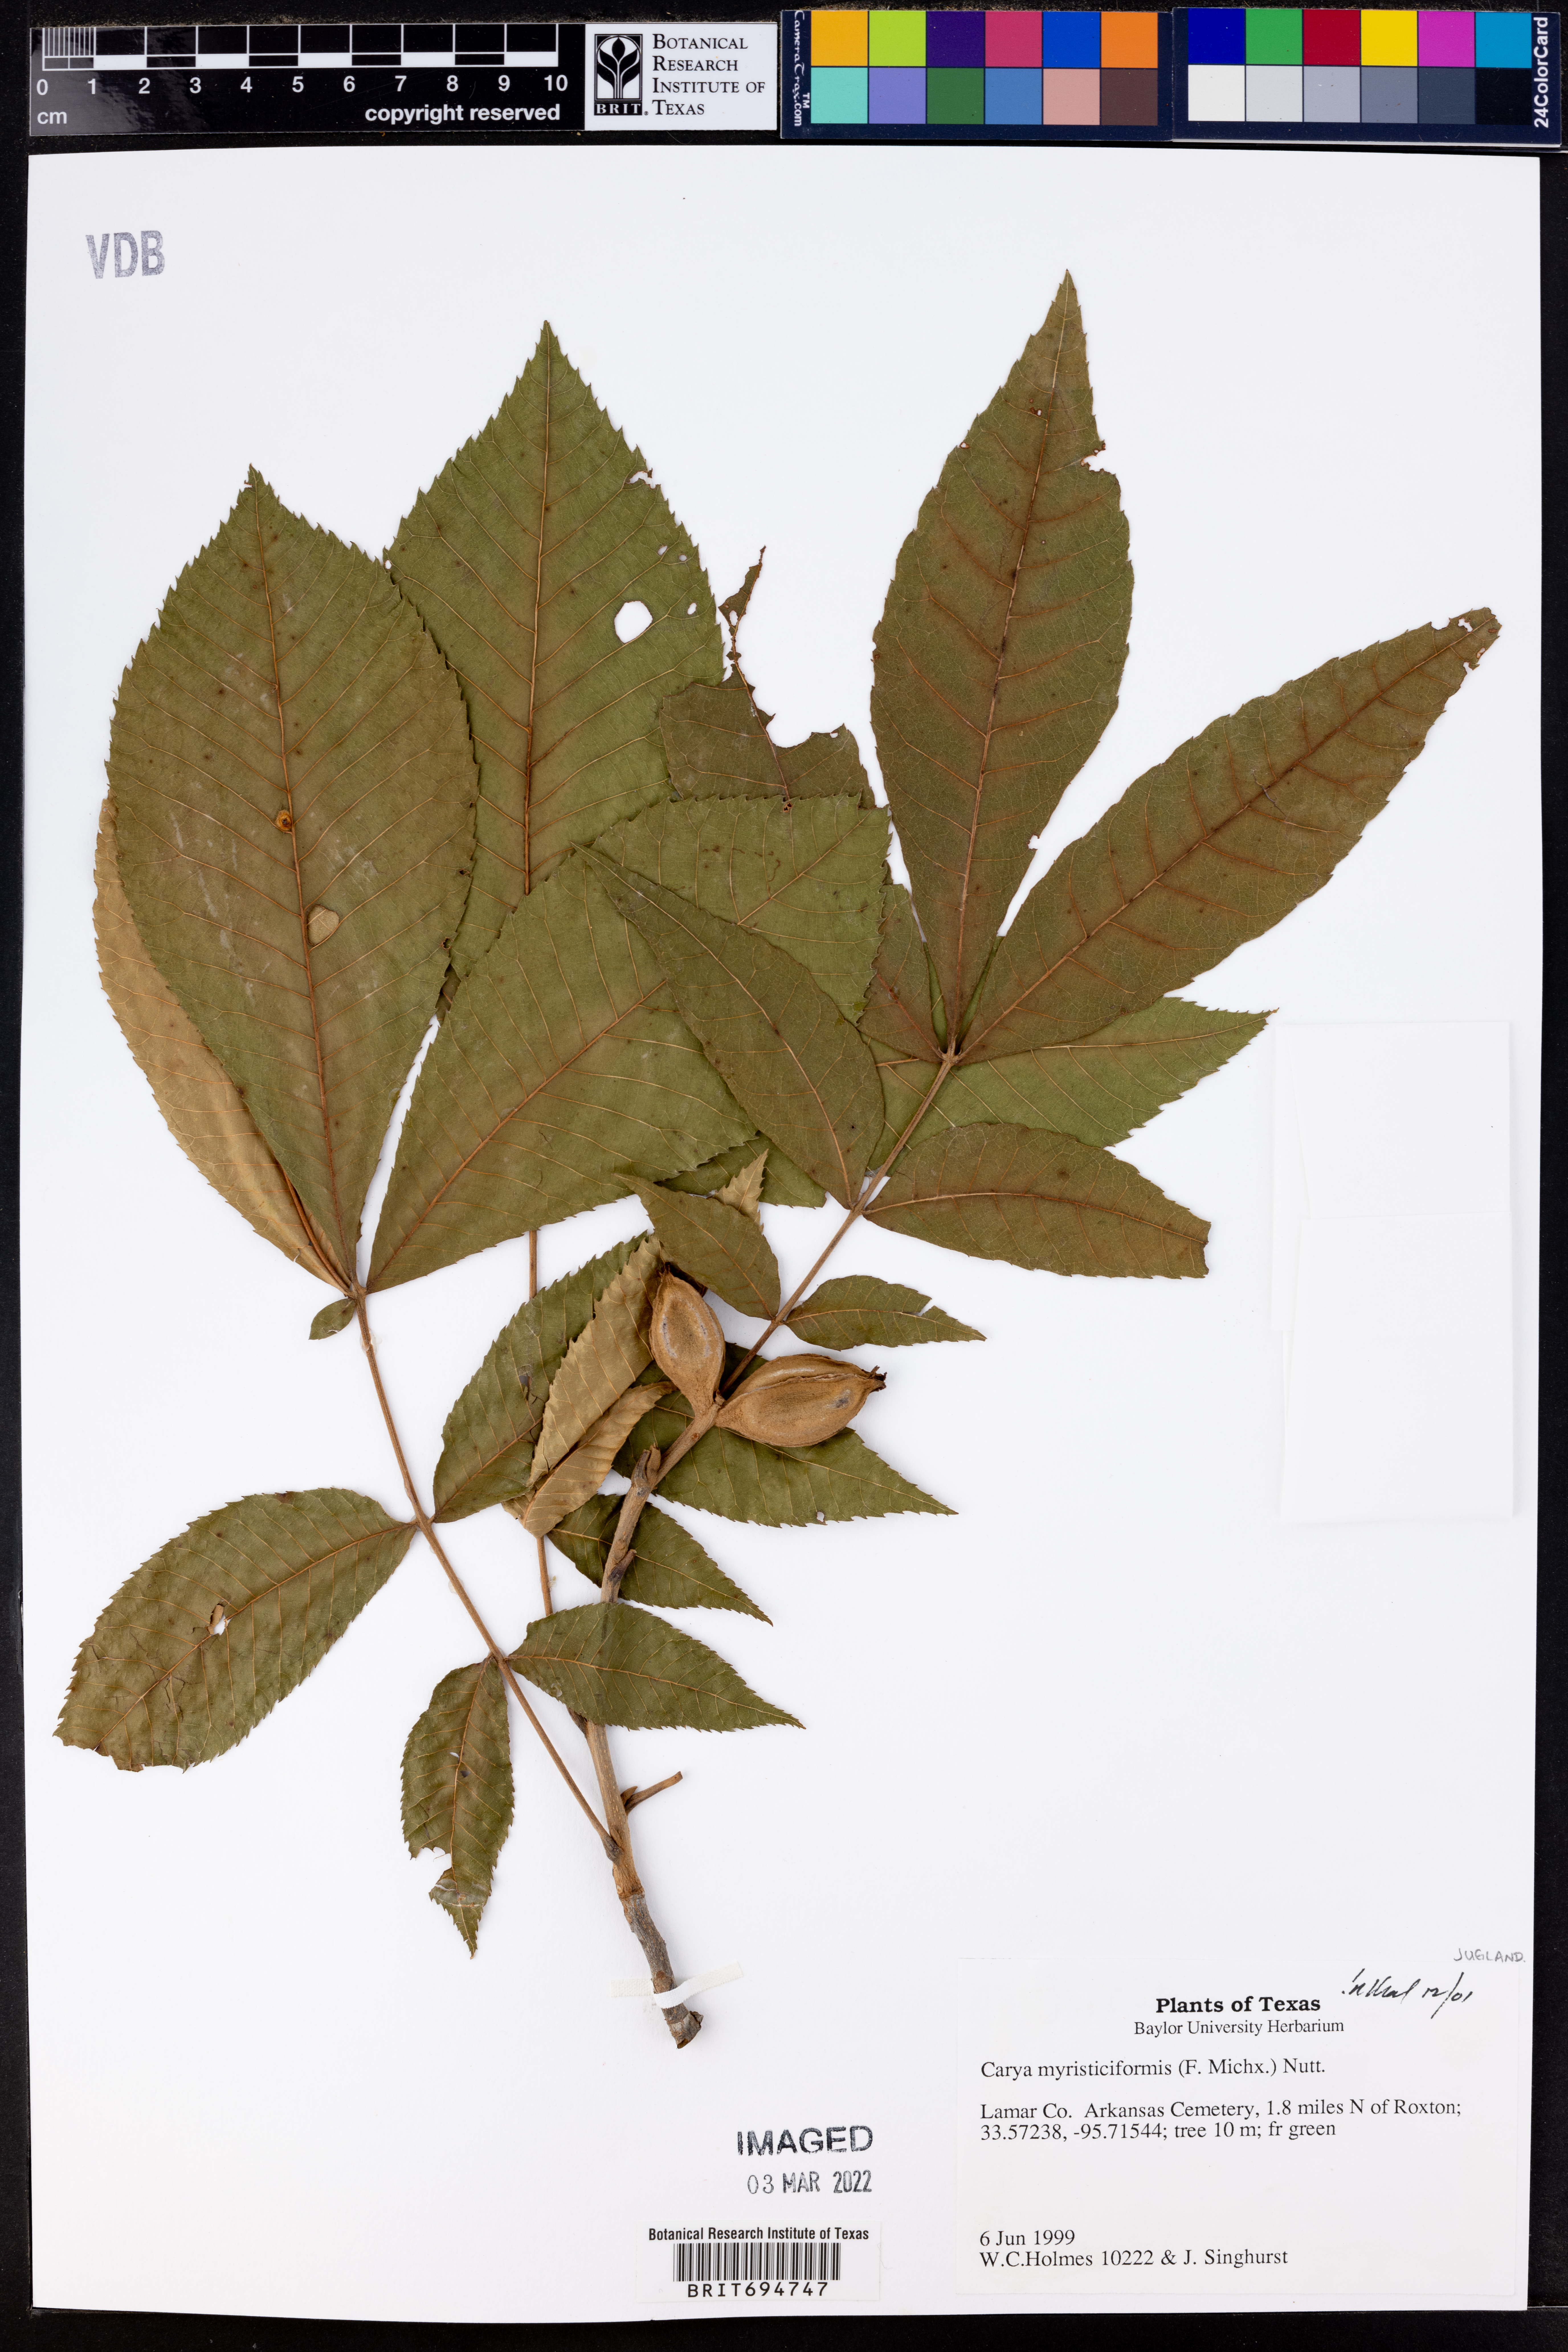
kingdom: Plantae
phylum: Tracheophyta
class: Magnoliopsida
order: Fagales
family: Juglandaceae
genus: Carya
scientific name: Carya myristiciformis
